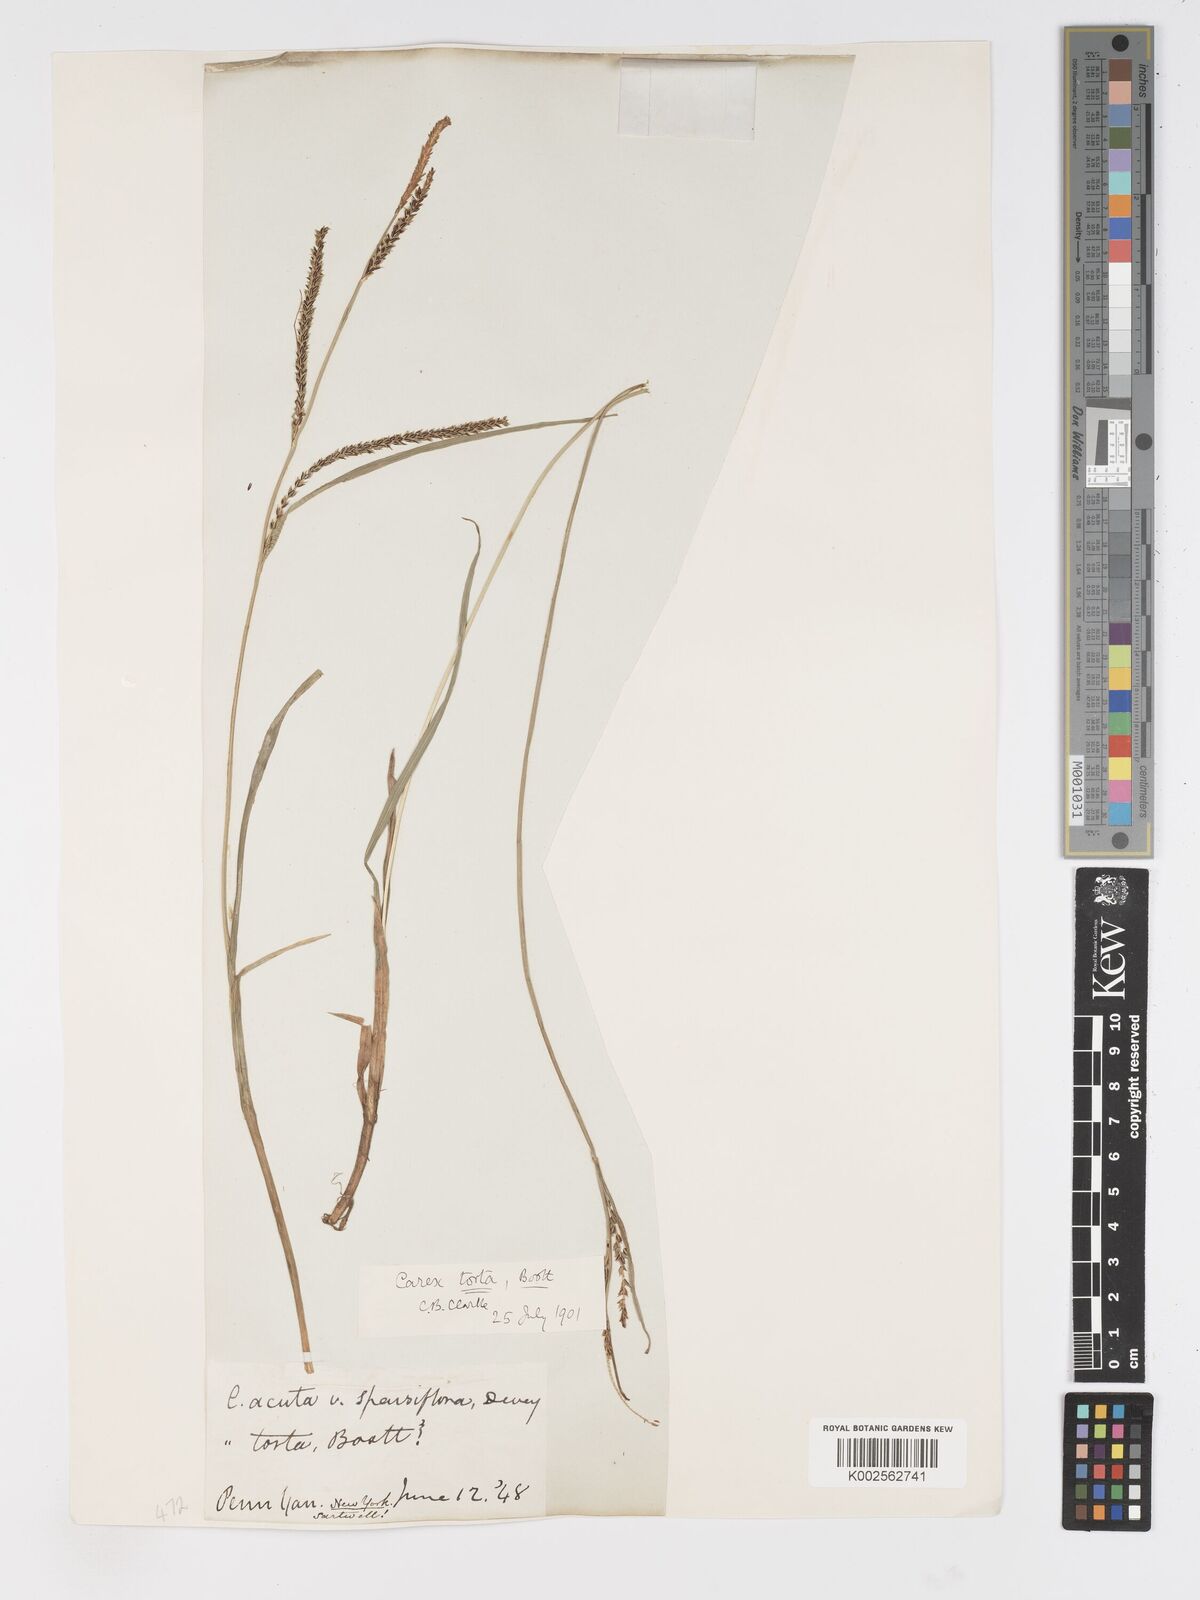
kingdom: Plantae
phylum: Tracheophyta
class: Liliopsida
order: Poales
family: Cyperaceae
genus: Carex
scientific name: Carex torta
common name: Twisted sedge
